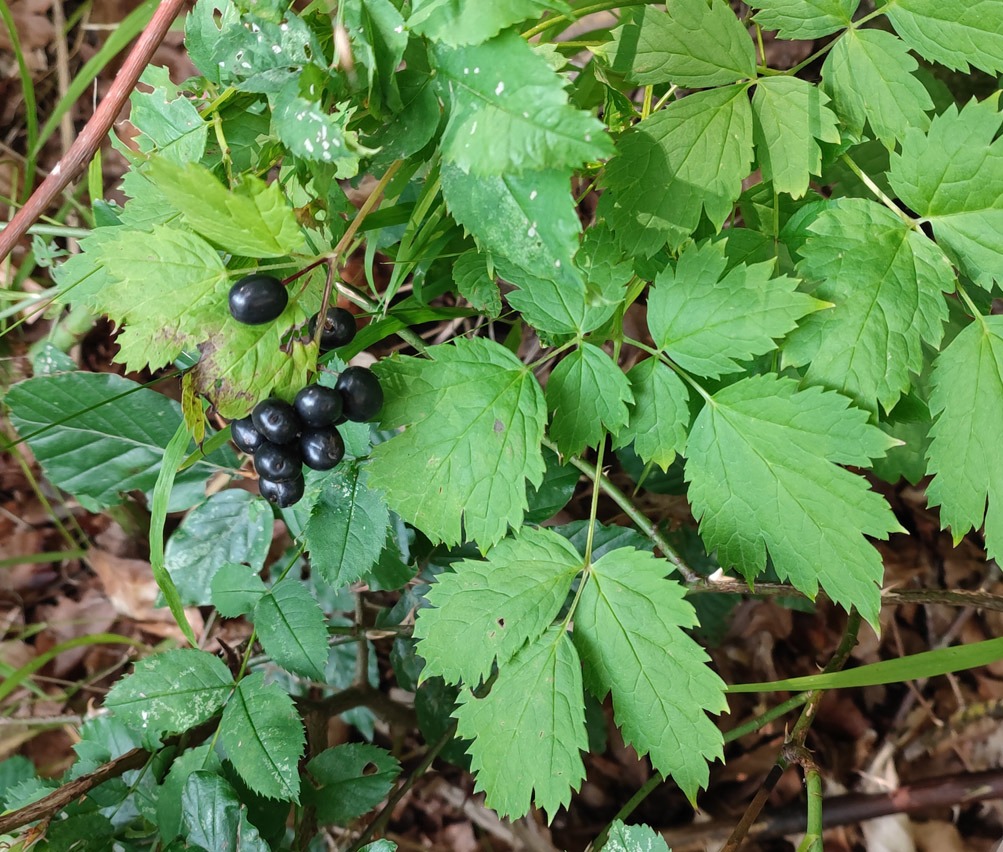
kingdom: Plantae
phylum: Tracheophyta
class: Magnoliopsida
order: Ranunculales
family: Ranunculaceae
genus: Actaea
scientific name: Actaea spicata
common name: Druemunke
